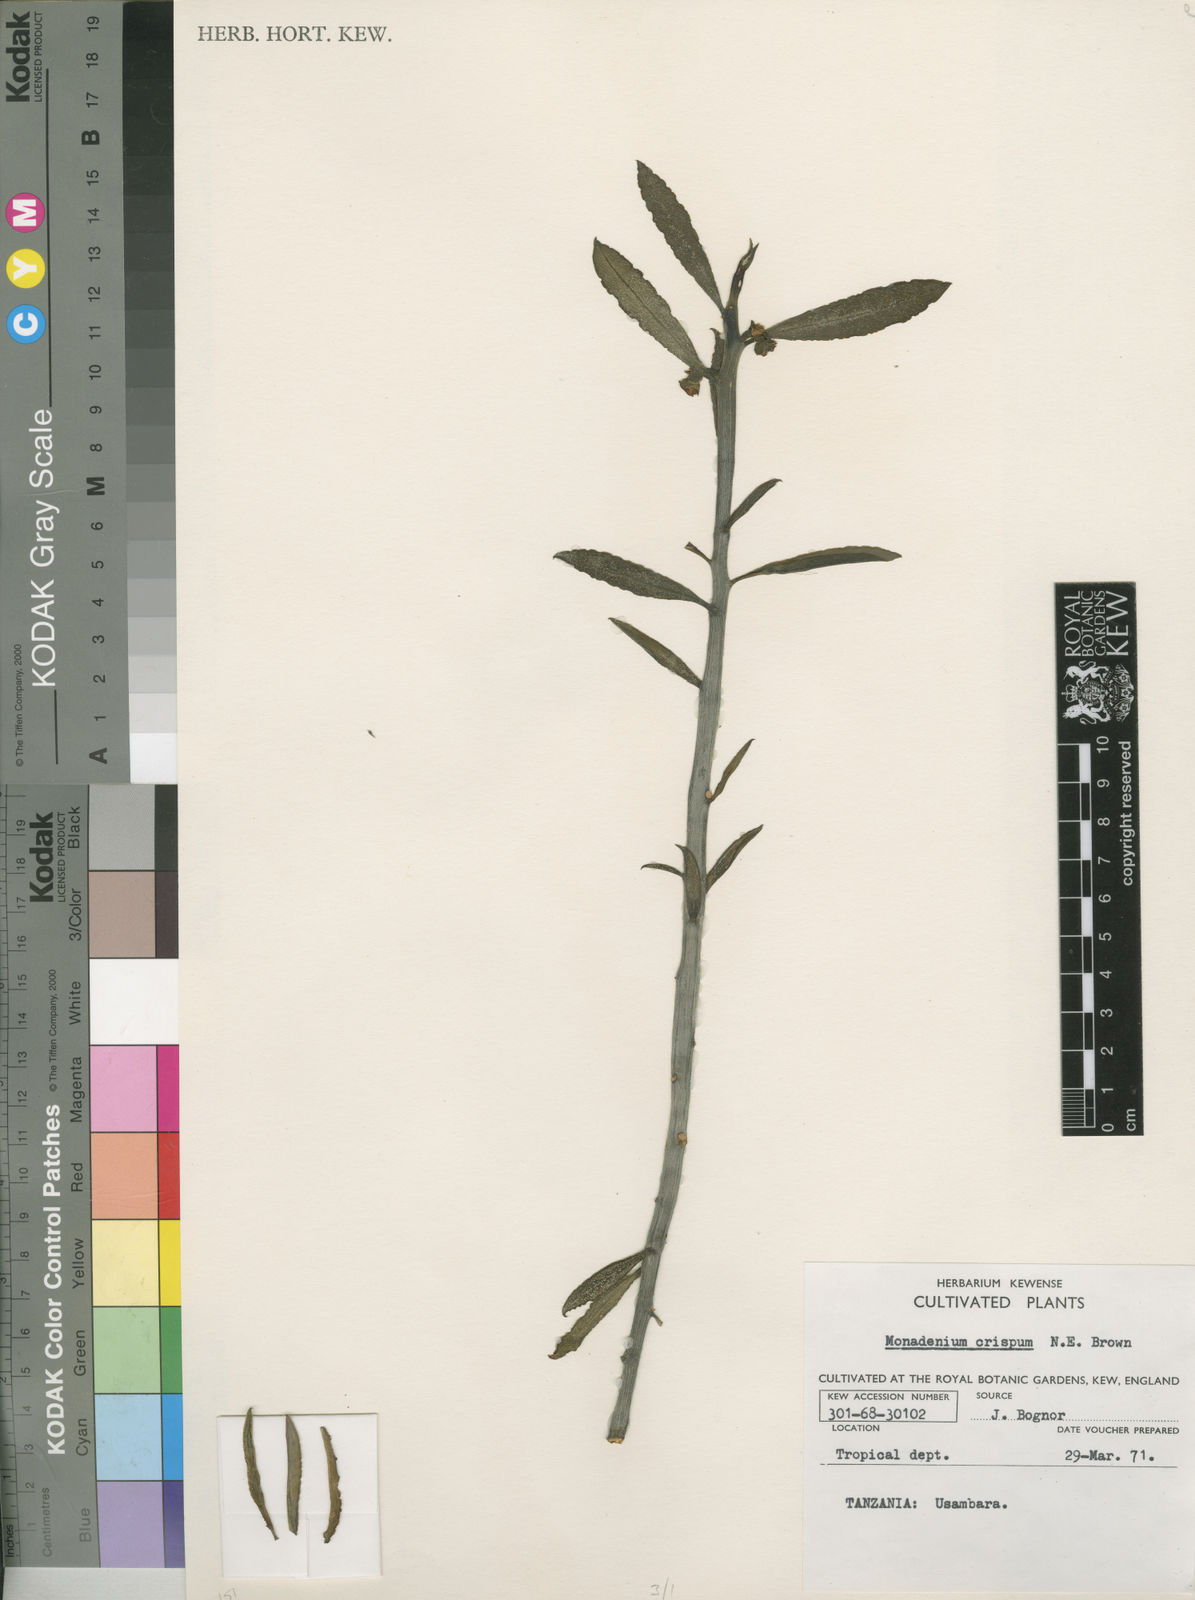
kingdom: Plantae
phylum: Tracheophyta
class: Magnoliopsida
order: Malpighiales
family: Euphorbiaceae
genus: Euphorbia
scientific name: Euphorbia neocrispa
